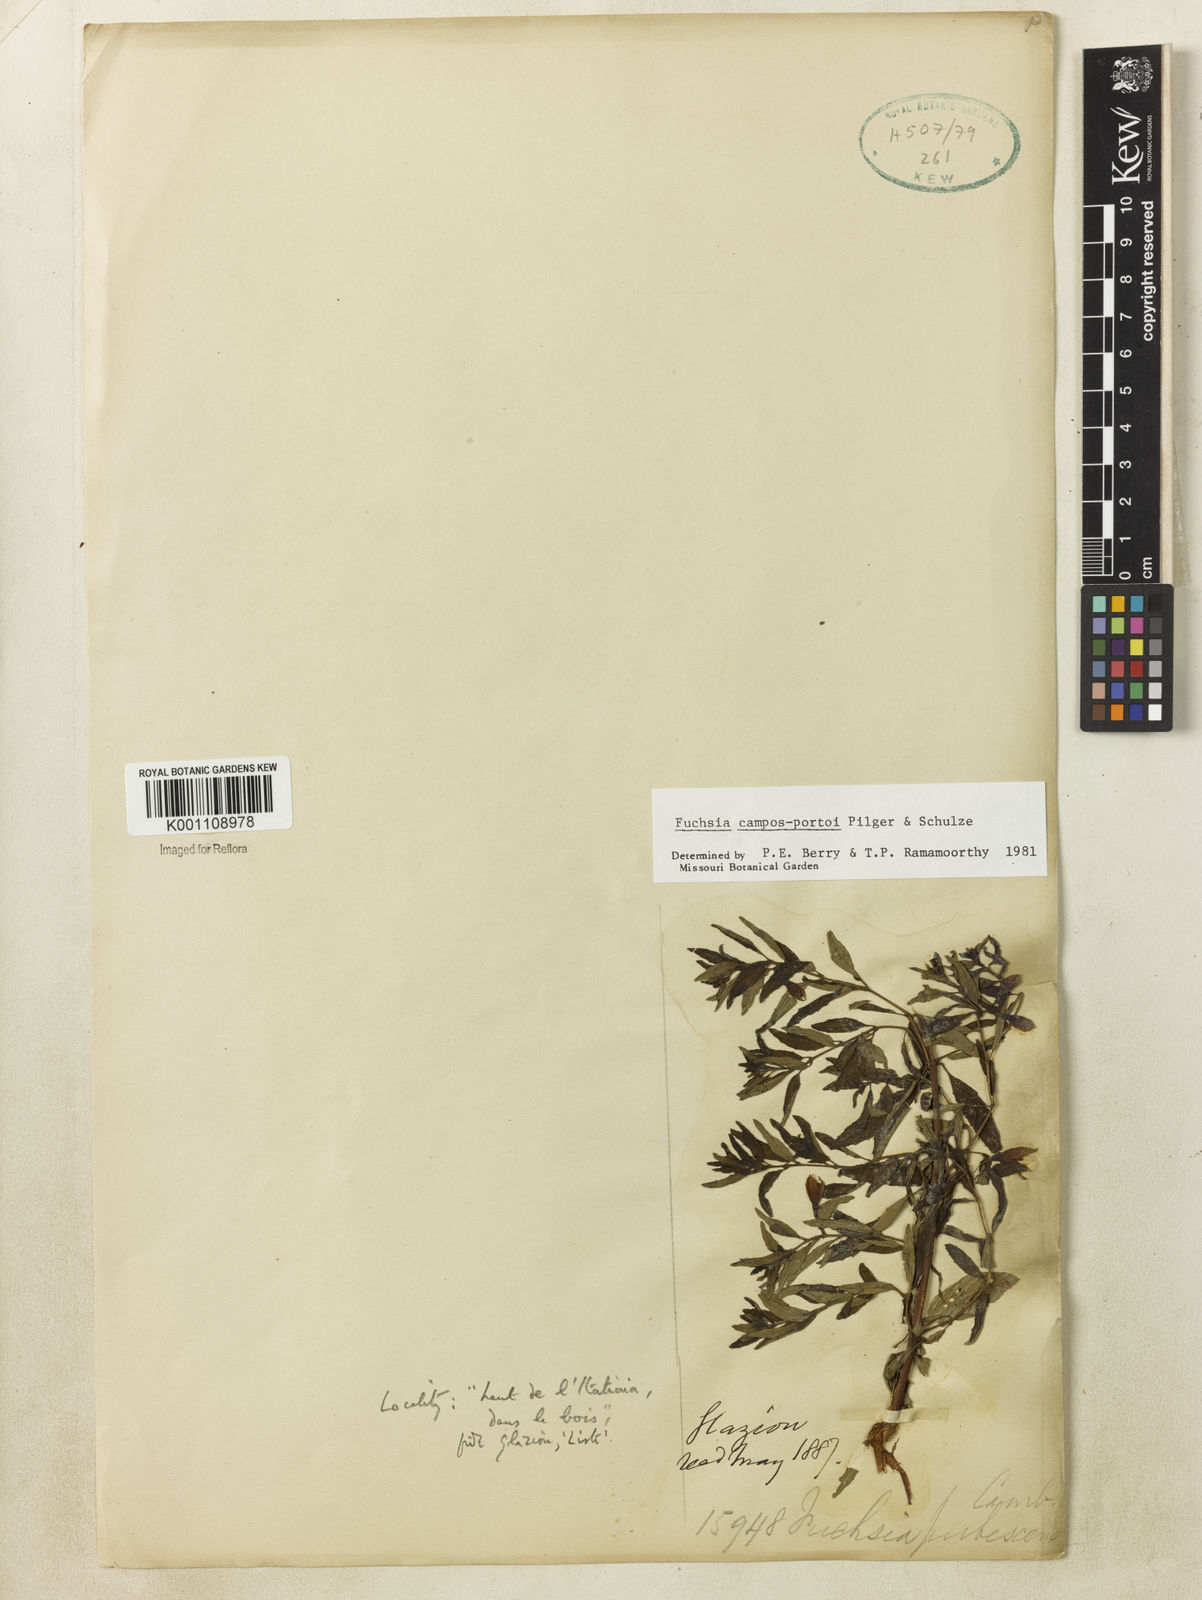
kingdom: Plantae
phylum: Tracheophyta
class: Magnoliopsida
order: Myrtales
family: Onagraceae
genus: Fuchsia
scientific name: Fuchsia campos-portoi
